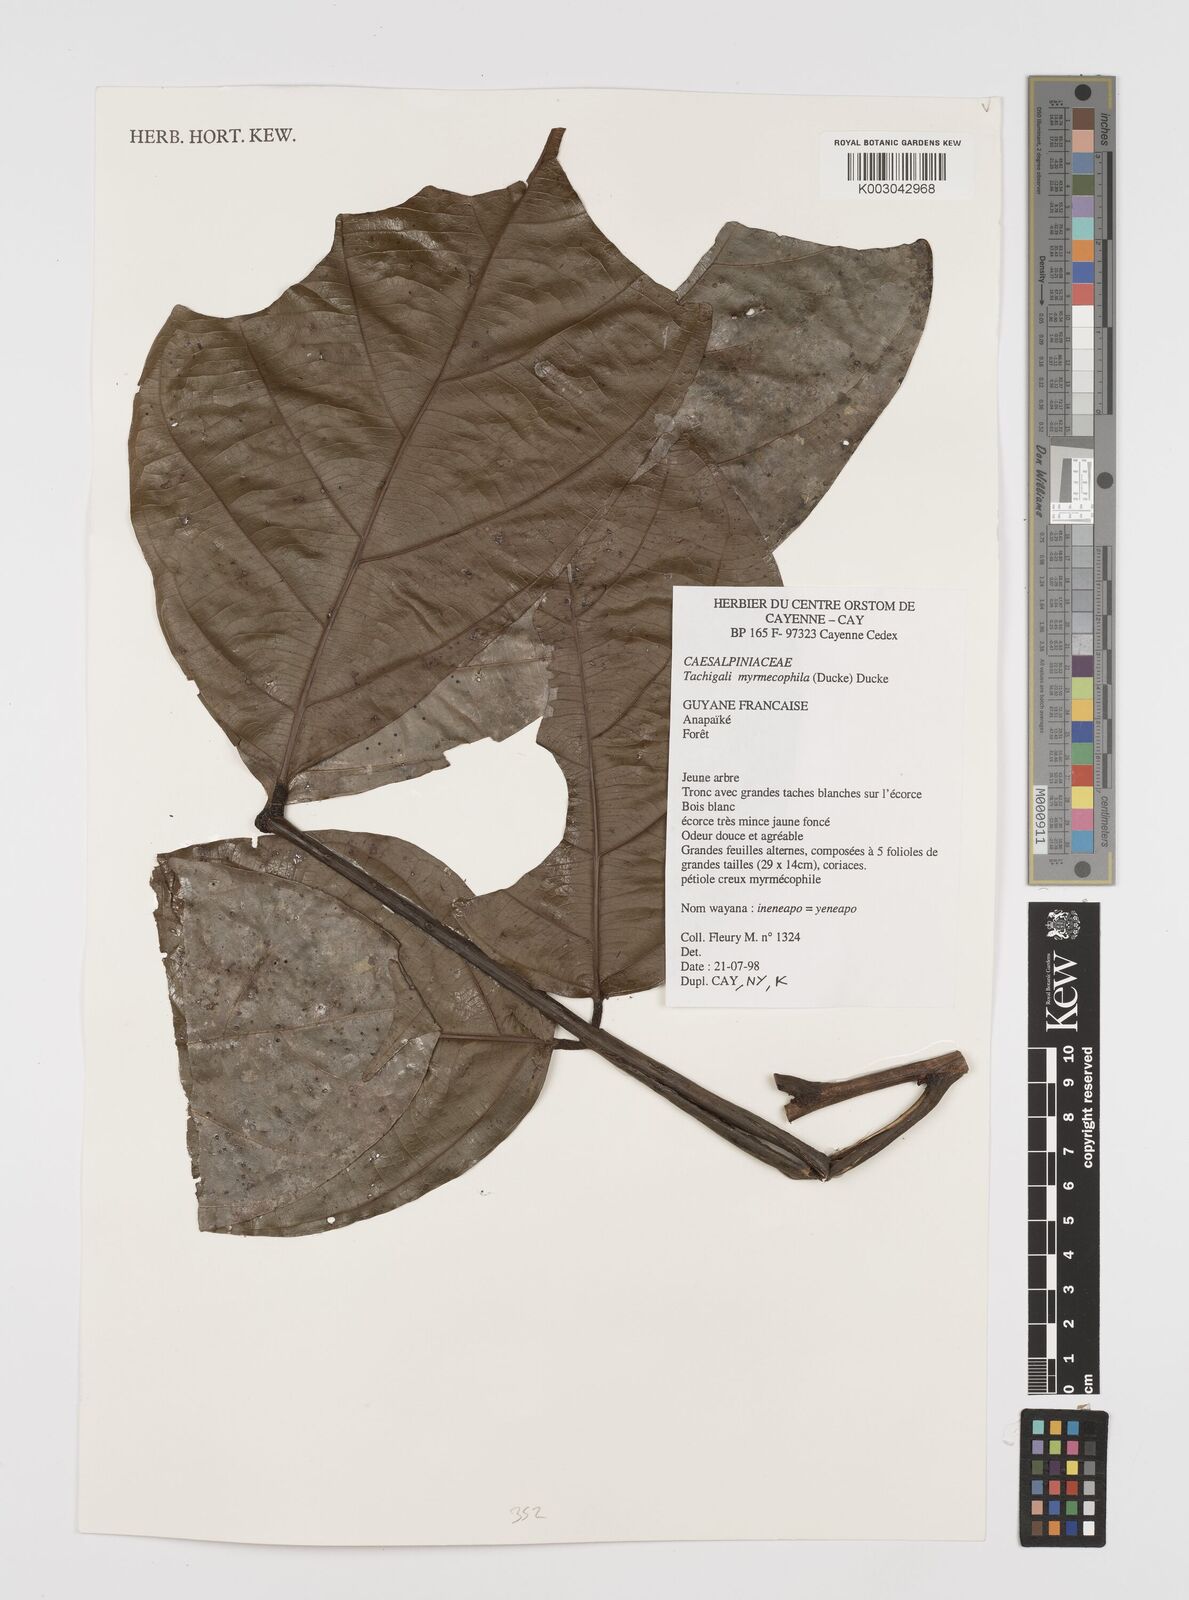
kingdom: Plantae
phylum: Tracheophyta
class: Magnoliopsida
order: Fabales
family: Fabaceae
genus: Tachigali
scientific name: Tachigali glauca
